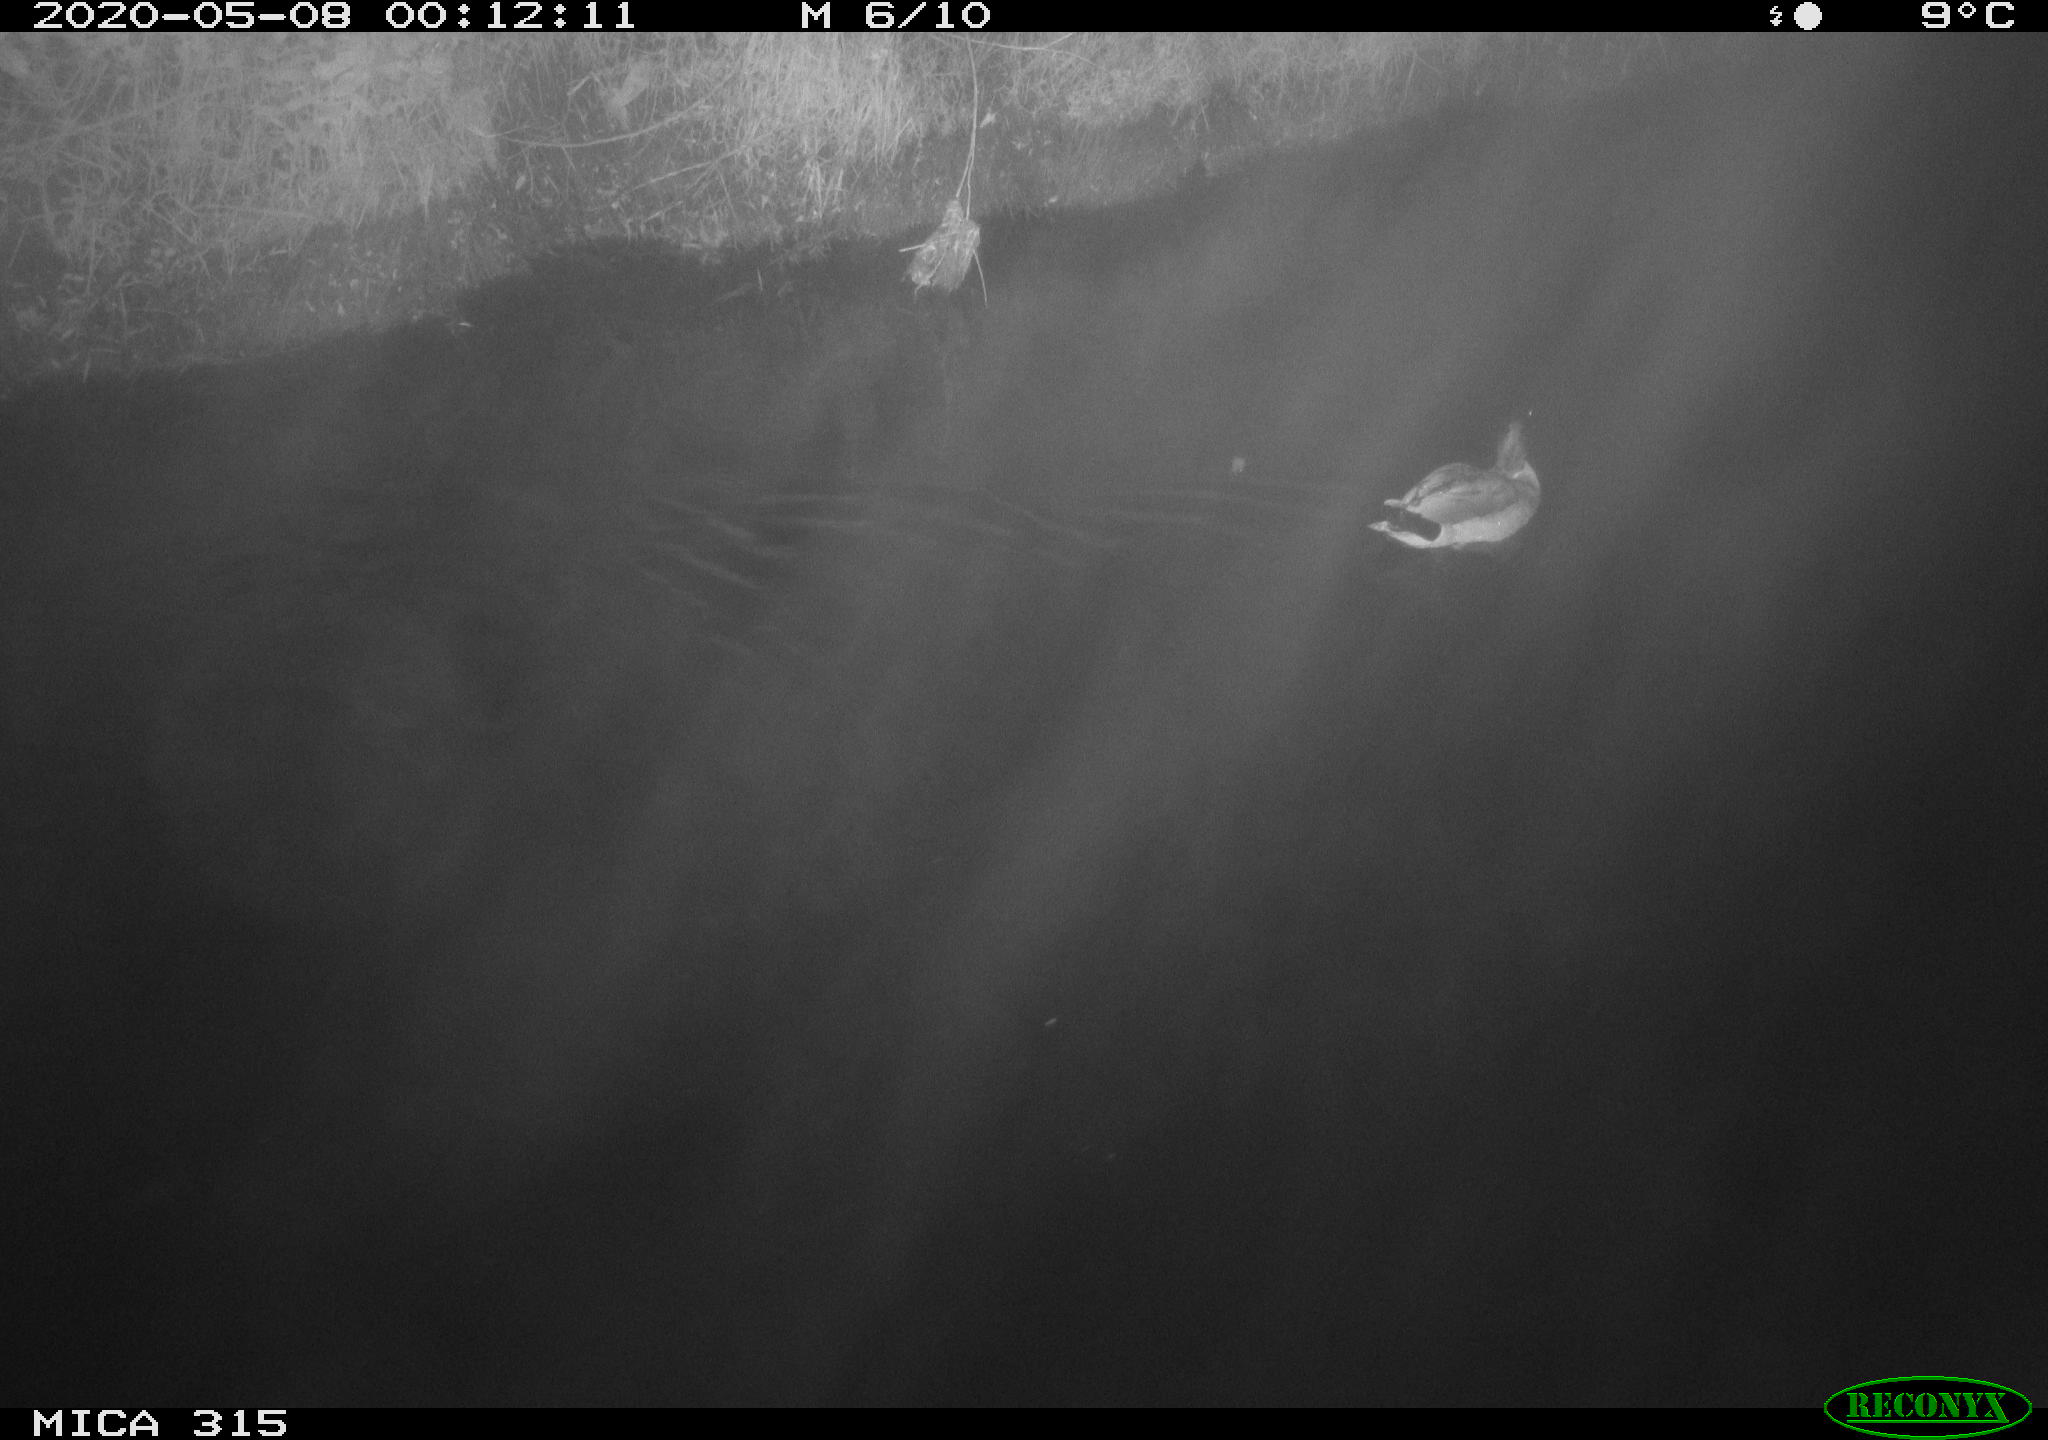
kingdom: Animalia
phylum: Chordata
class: Aves
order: Anseriformes
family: Anatidae
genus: Anas
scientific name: Anas platyrhynchos
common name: Mallard
